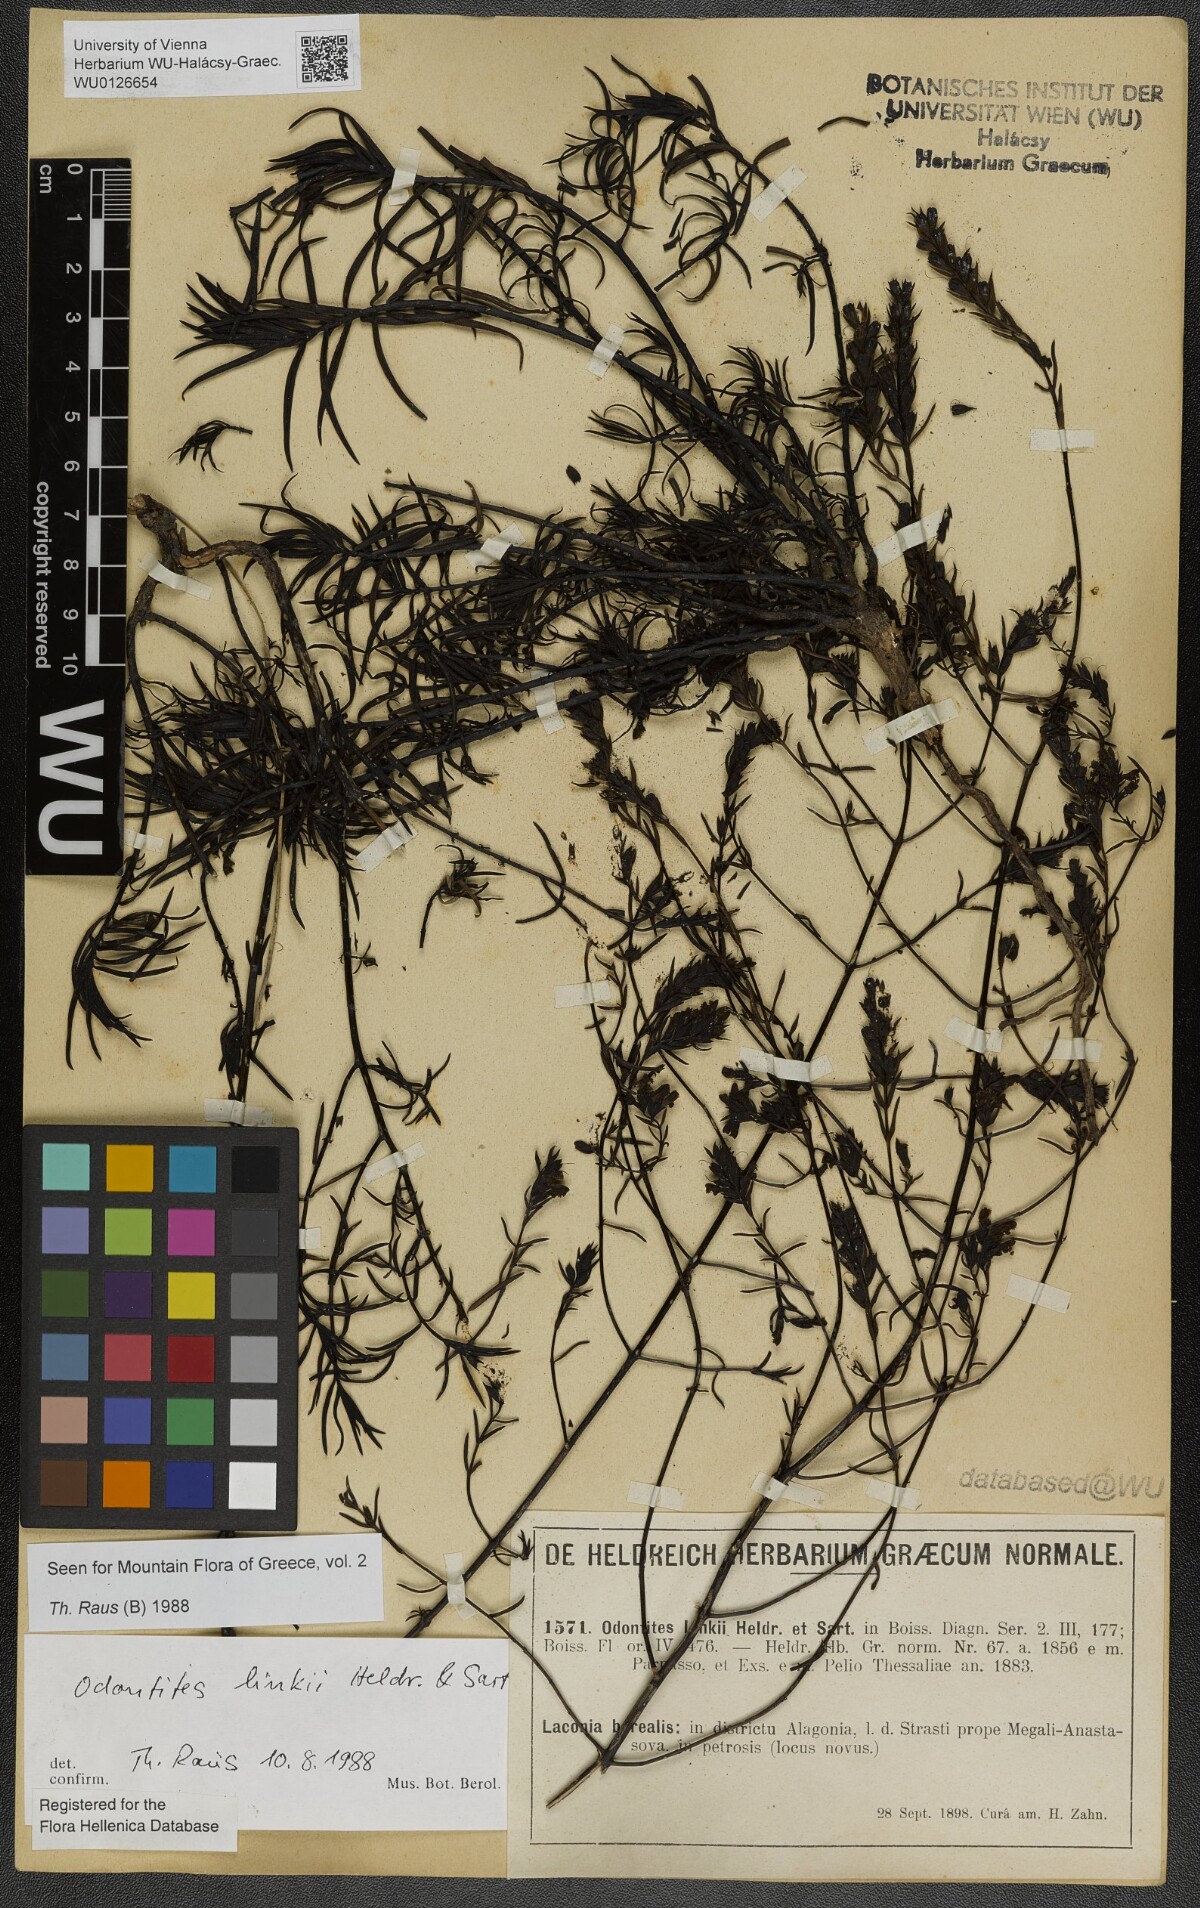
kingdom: Plantae
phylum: Tracheophyta
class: Magnoliopsida
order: Lamiales
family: Scrophulariaceae
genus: Odontites
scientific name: Odontites linkii
